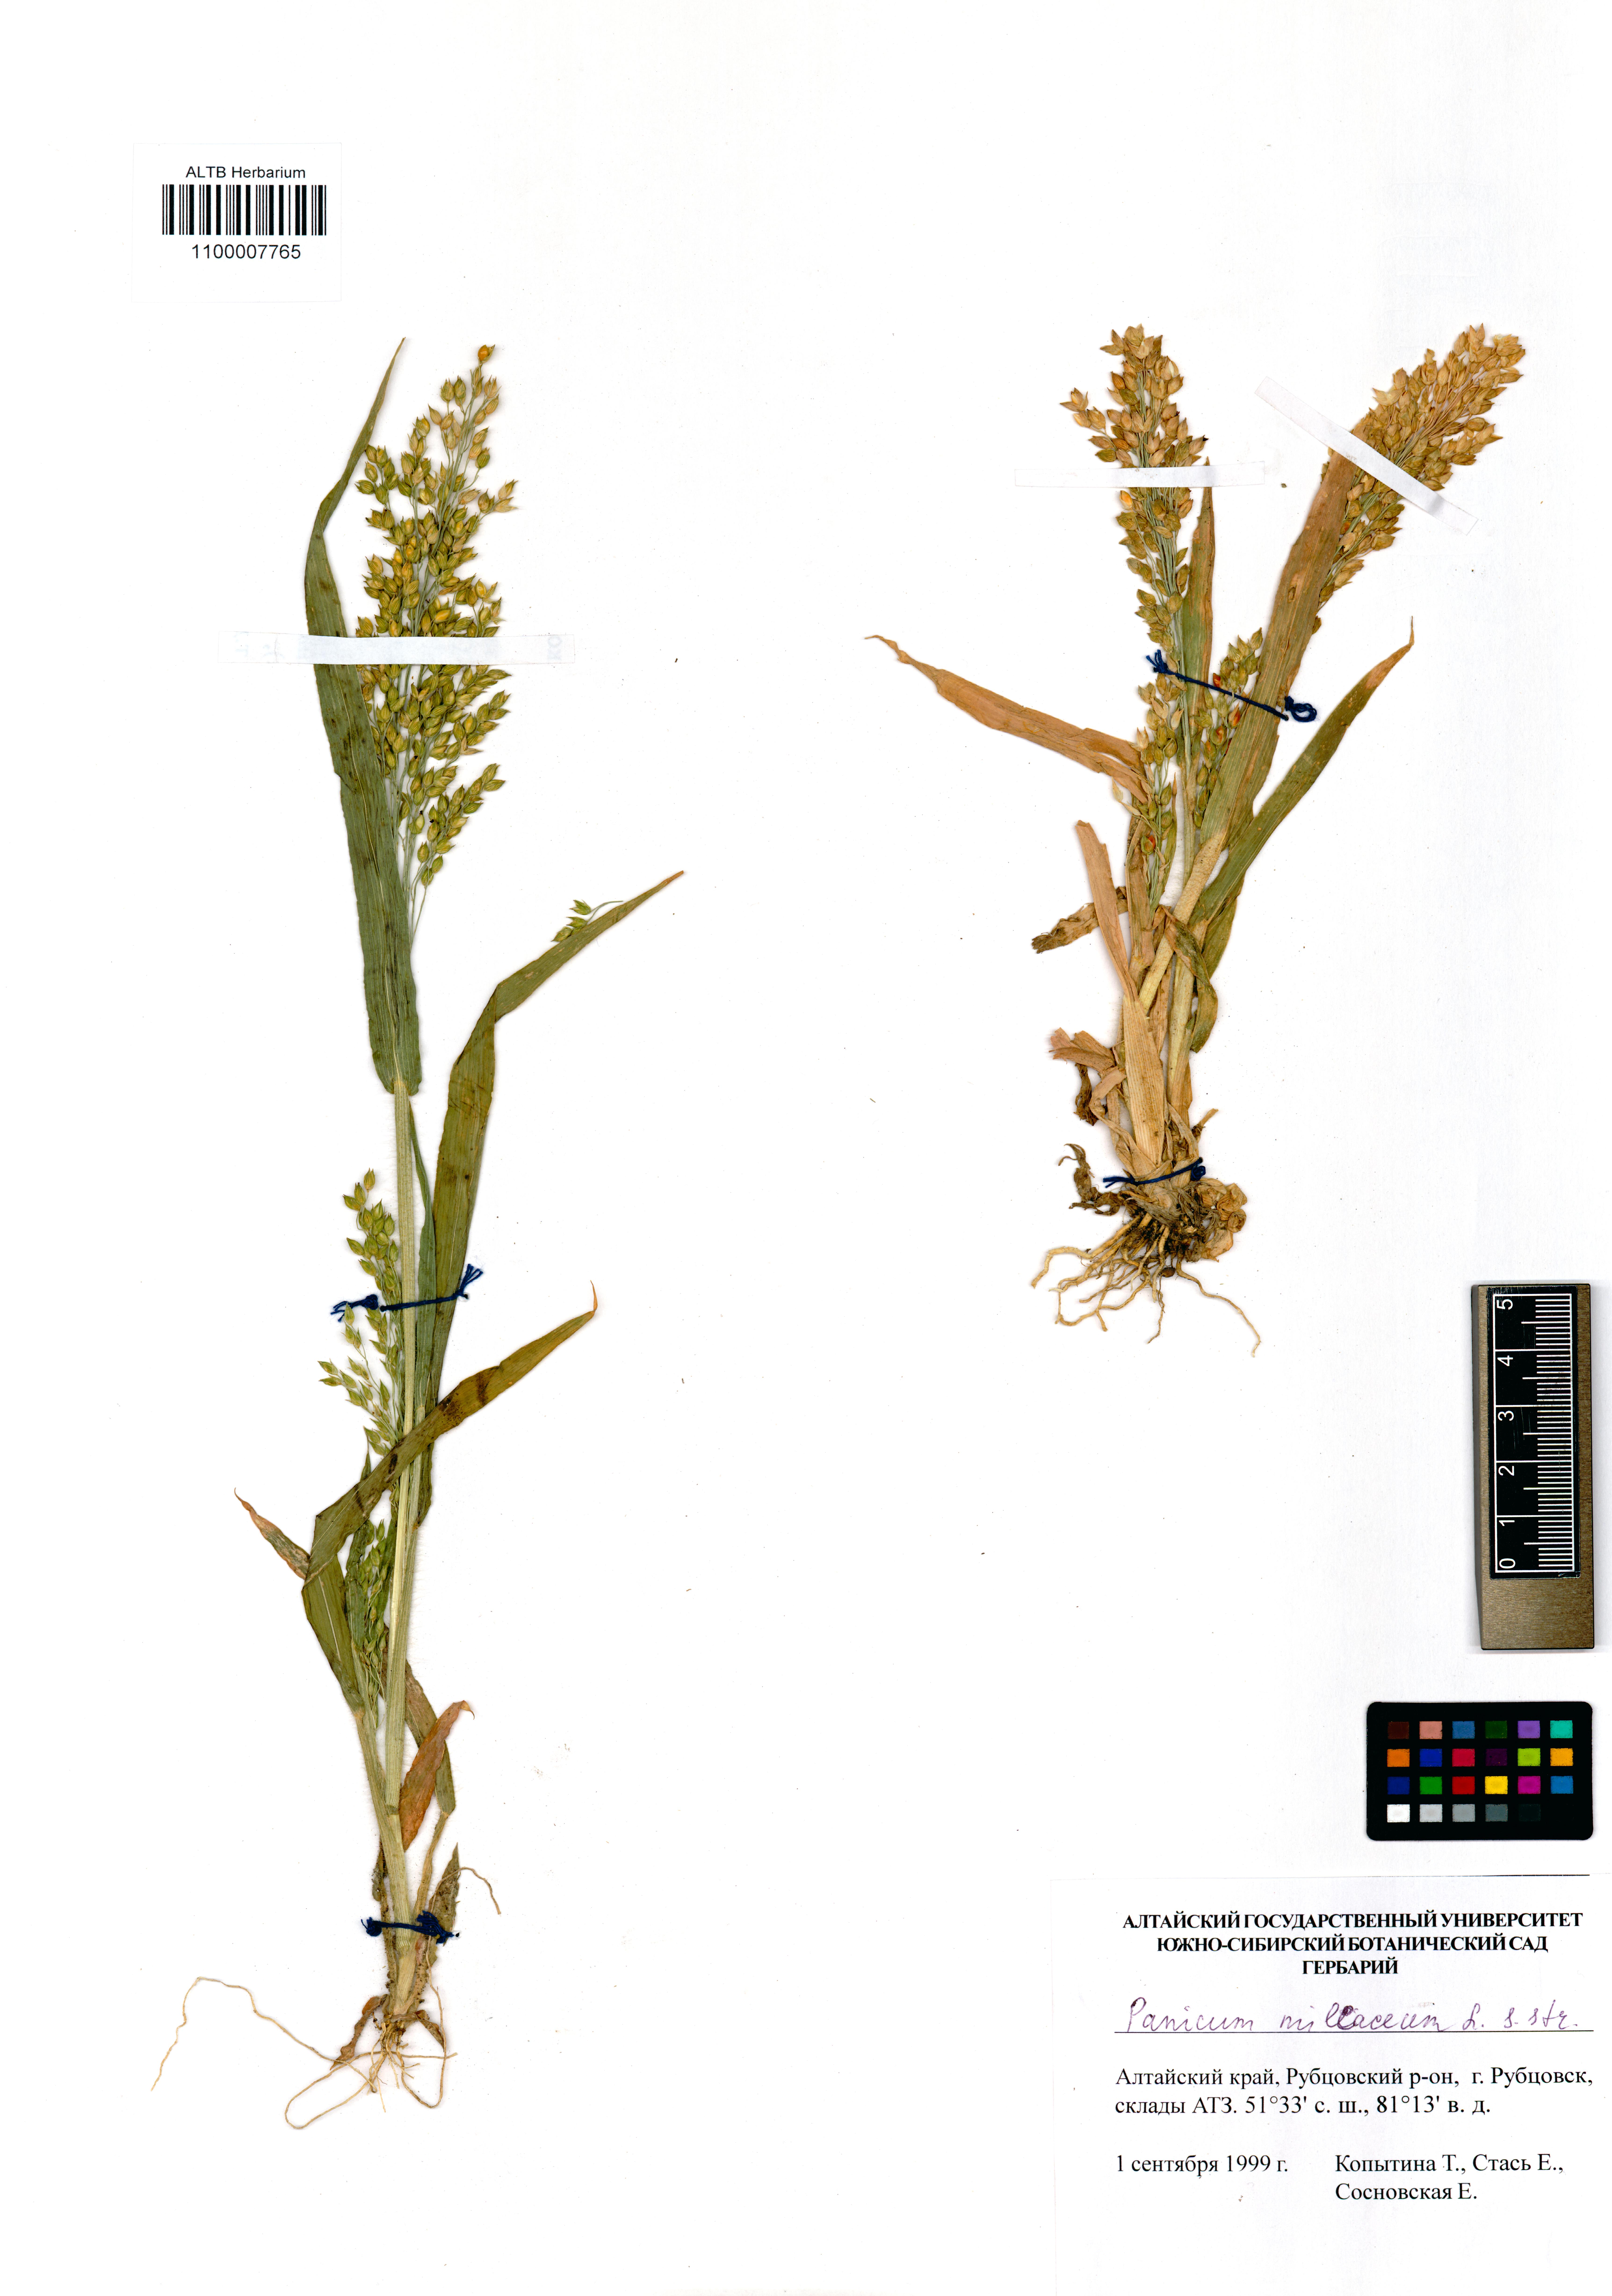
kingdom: Plantae
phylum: Tracheophyta
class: Liliopsida
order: Poales
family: Poaceae
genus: Panicum
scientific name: Panicum miliaceum
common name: Common millet
